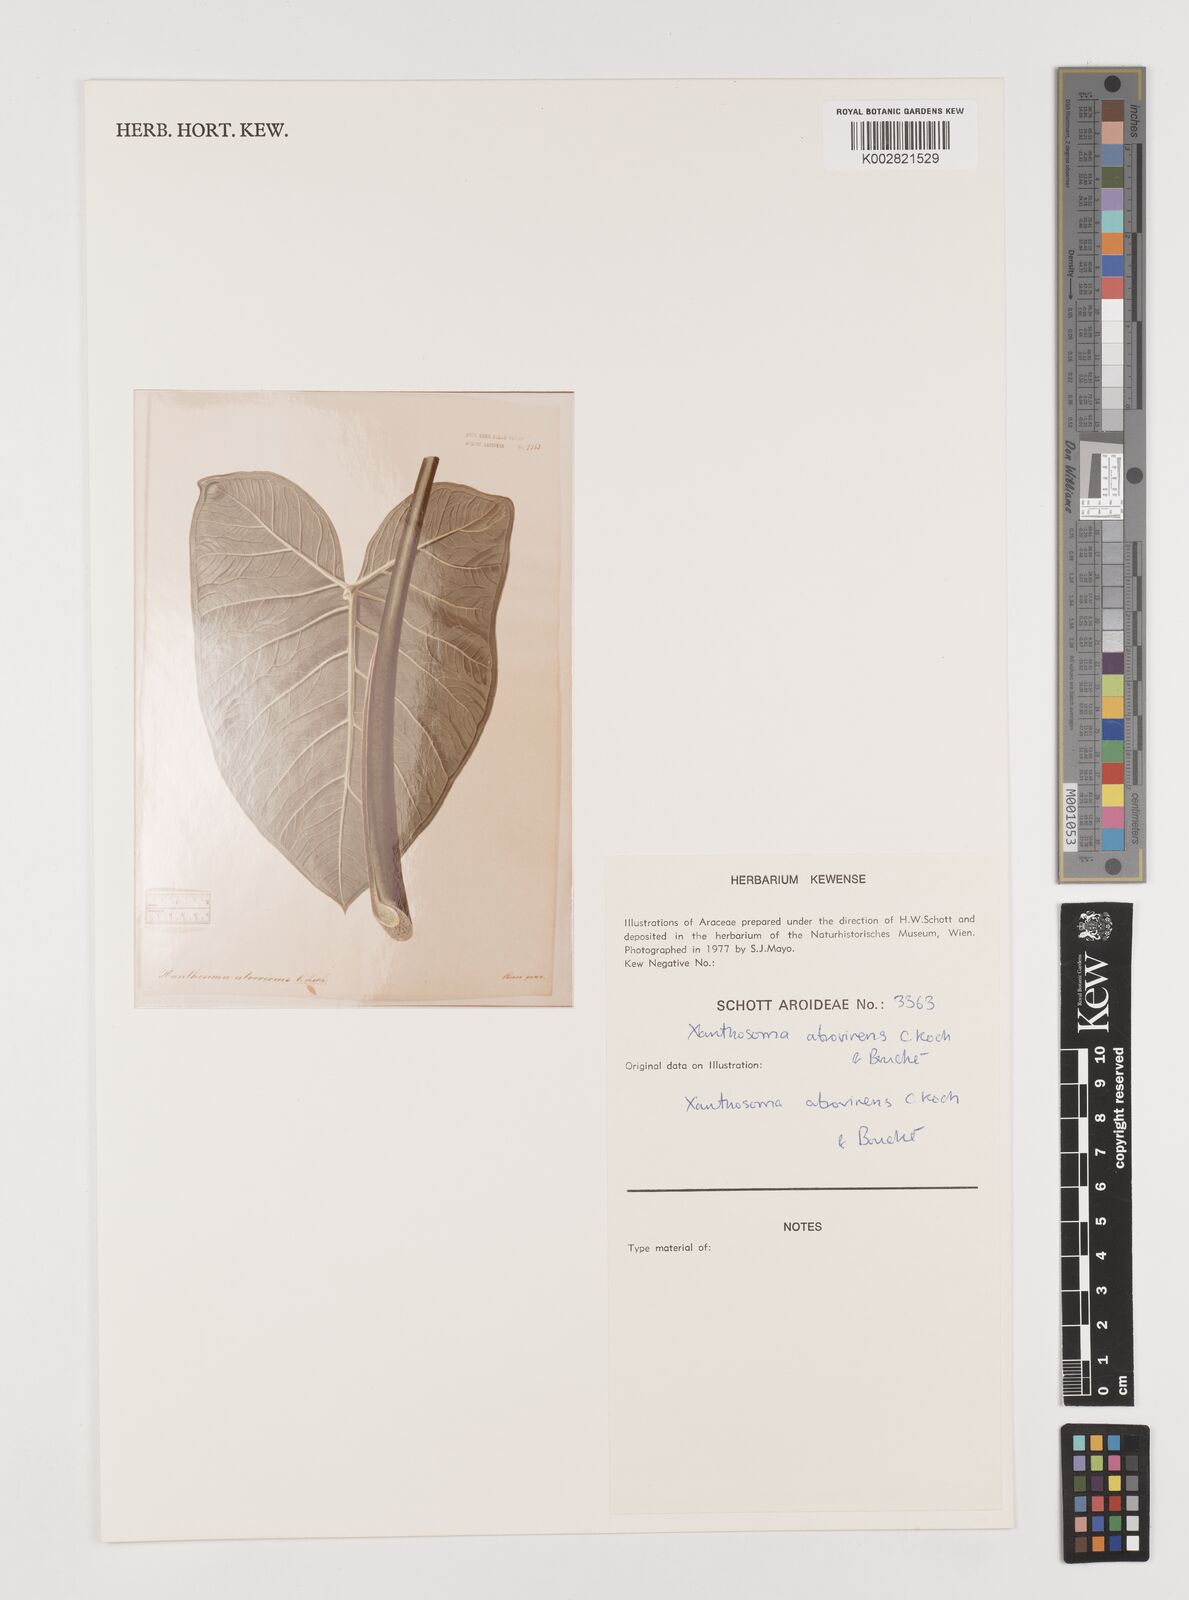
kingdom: Plantae
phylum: Tracheophyta
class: Liliopsida
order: Alismatales
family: Araceae
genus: Xanthosoma
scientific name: Xanthosoma sagittifolium
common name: Arrowleaf elephant's ear
